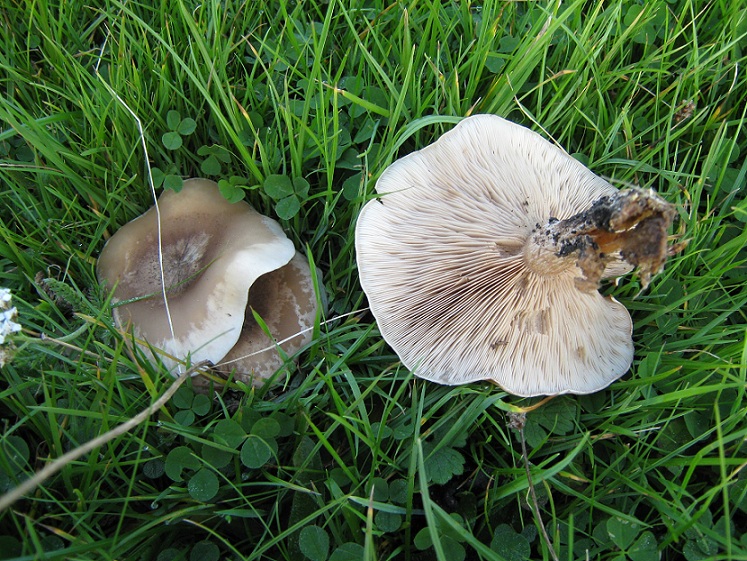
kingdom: Fungi
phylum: Basidiomycota
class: Agaricomycetes
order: Agaricales
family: Tricholomataceae
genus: Clitocybe
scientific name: Clitocybe rivulosa
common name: eng-tragthat
